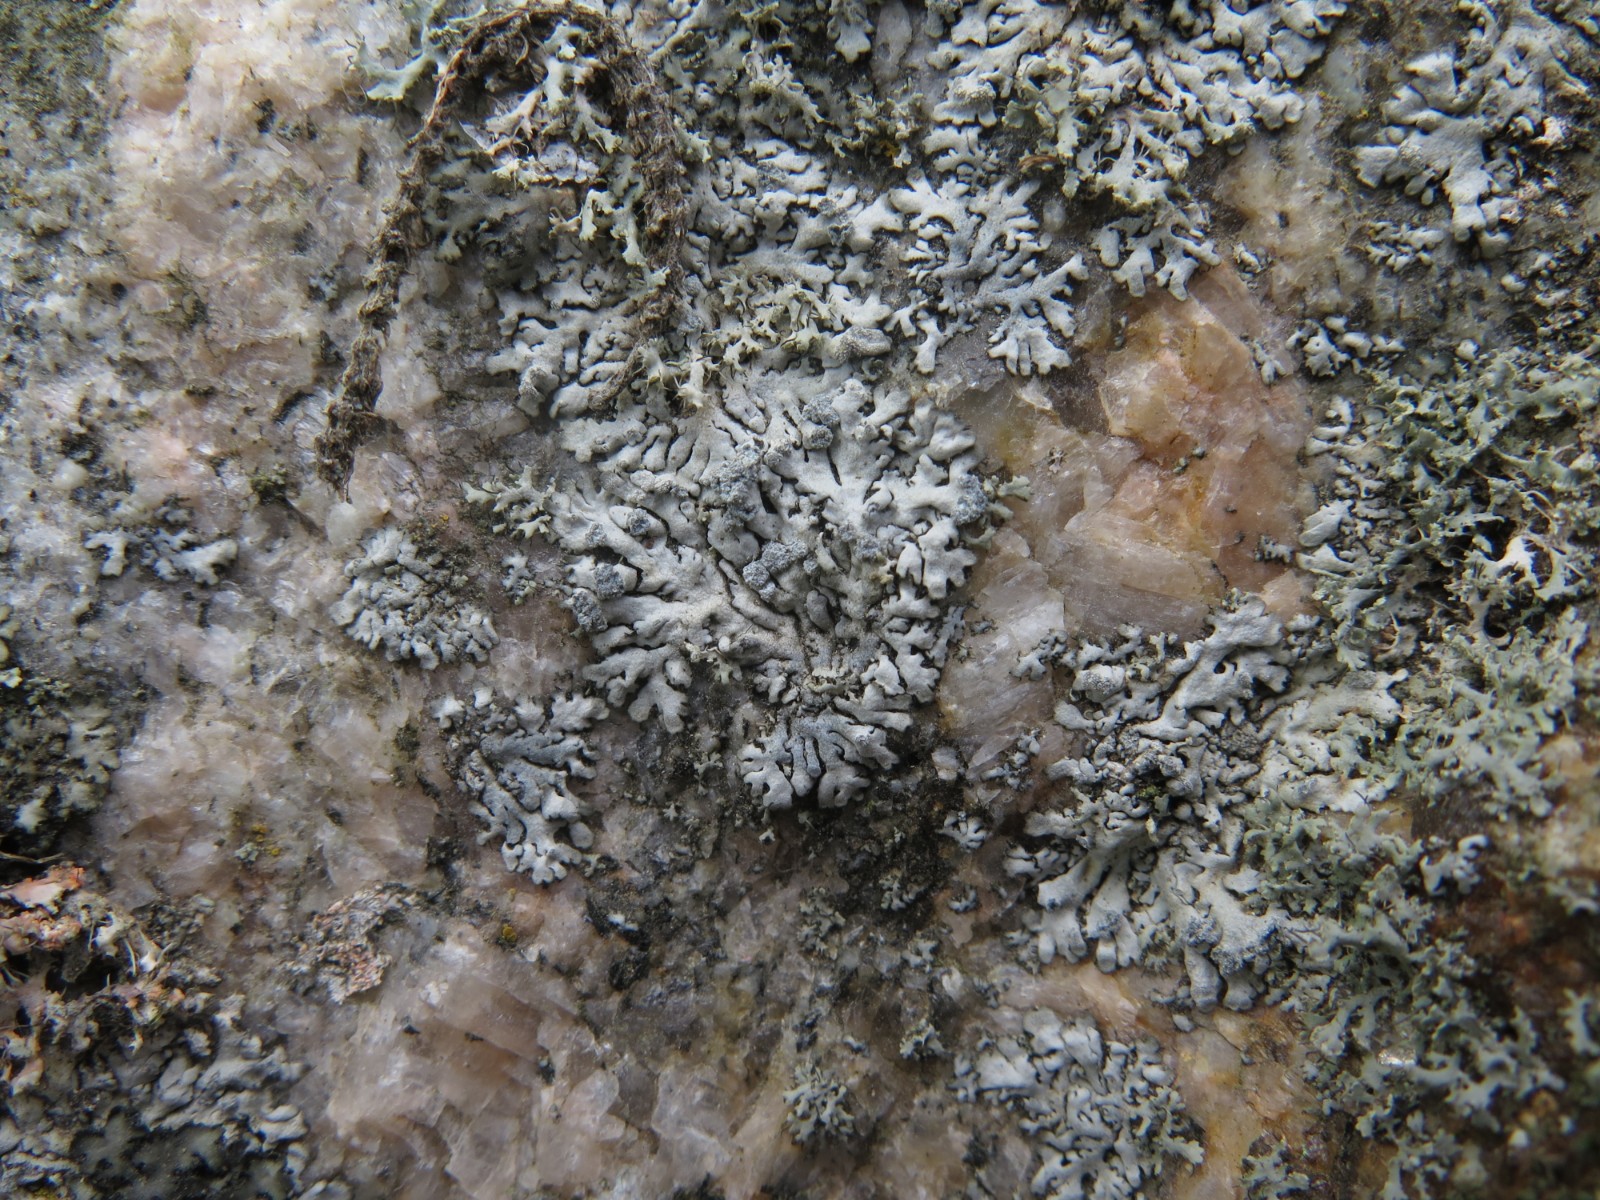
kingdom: Fungi
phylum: Ascomycota
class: Lecanoromycetes
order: Caliciales
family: Physciaceae
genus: Physcia
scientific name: Physcia caesia
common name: blågrå rosetlav
